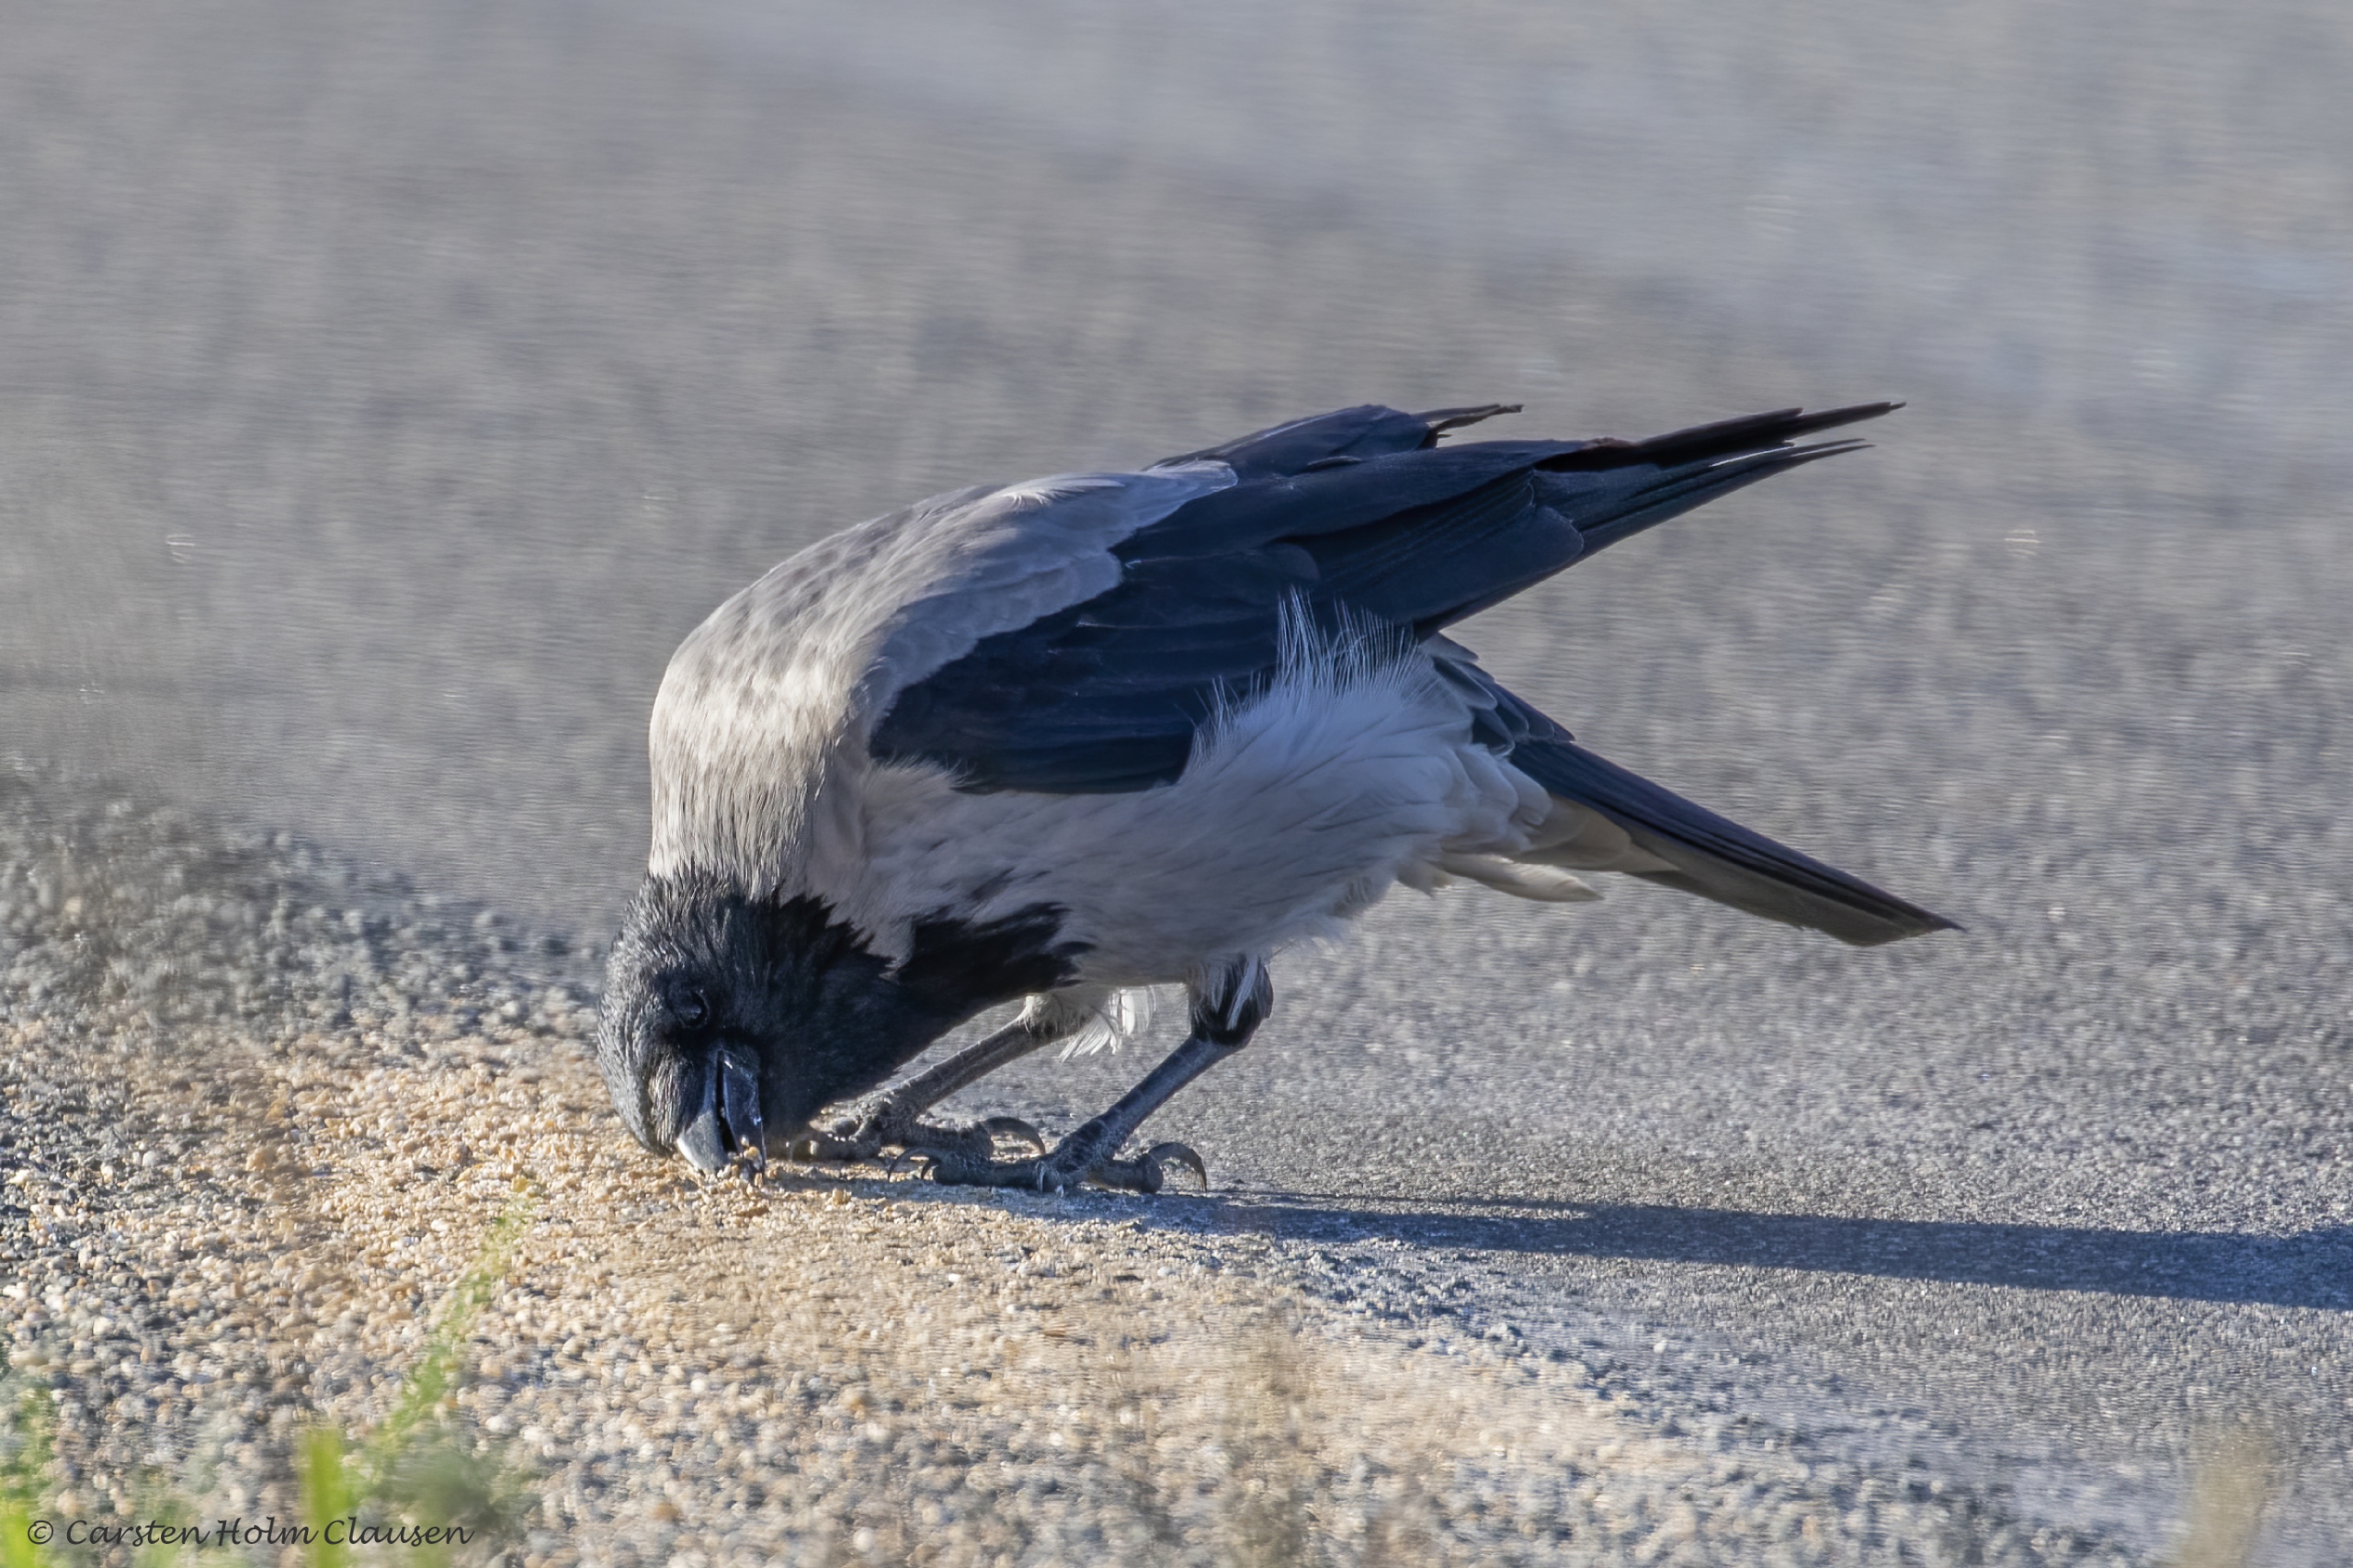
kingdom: Animalia
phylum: Chordata
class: Aves
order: Passeriformes
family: Corvidae
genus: Corvus
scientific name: Corvus cornix
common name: Gråkrage
